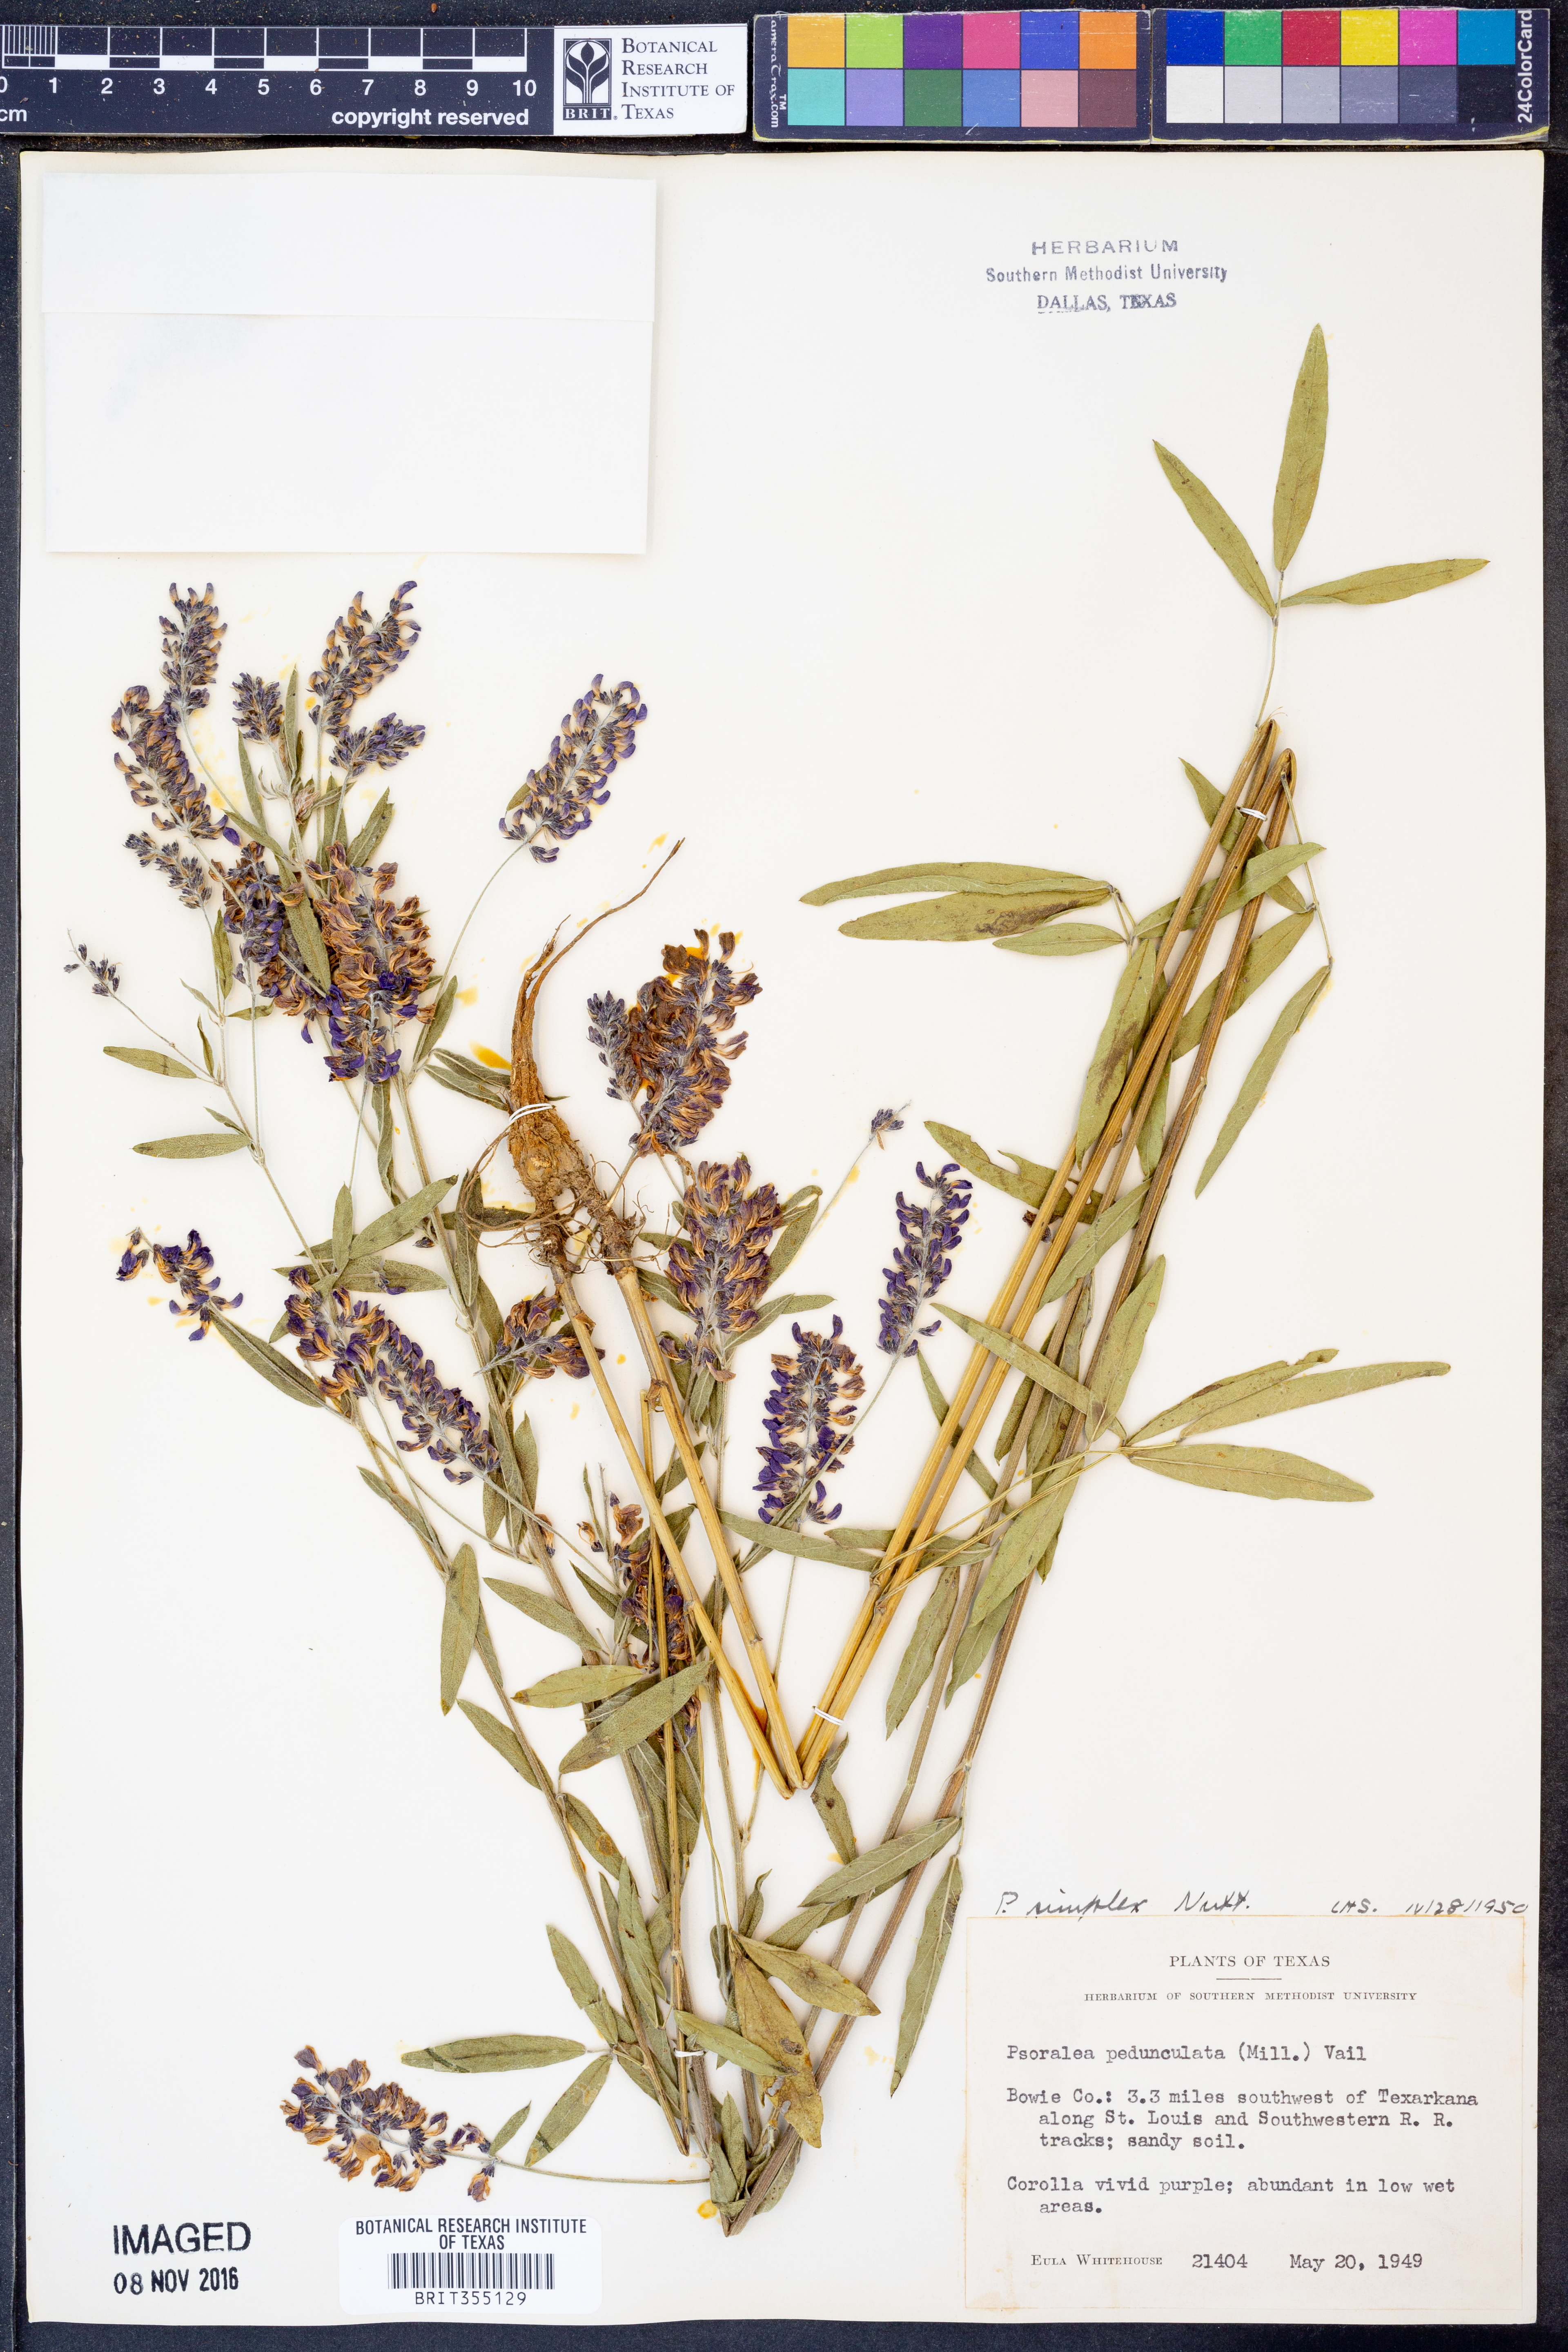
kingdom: Plantae
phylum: Tracheophyta
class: Magnoliopsida
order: Fabales
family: Fabaceae
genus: Orbexilum
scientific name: Orbexilum simplex
